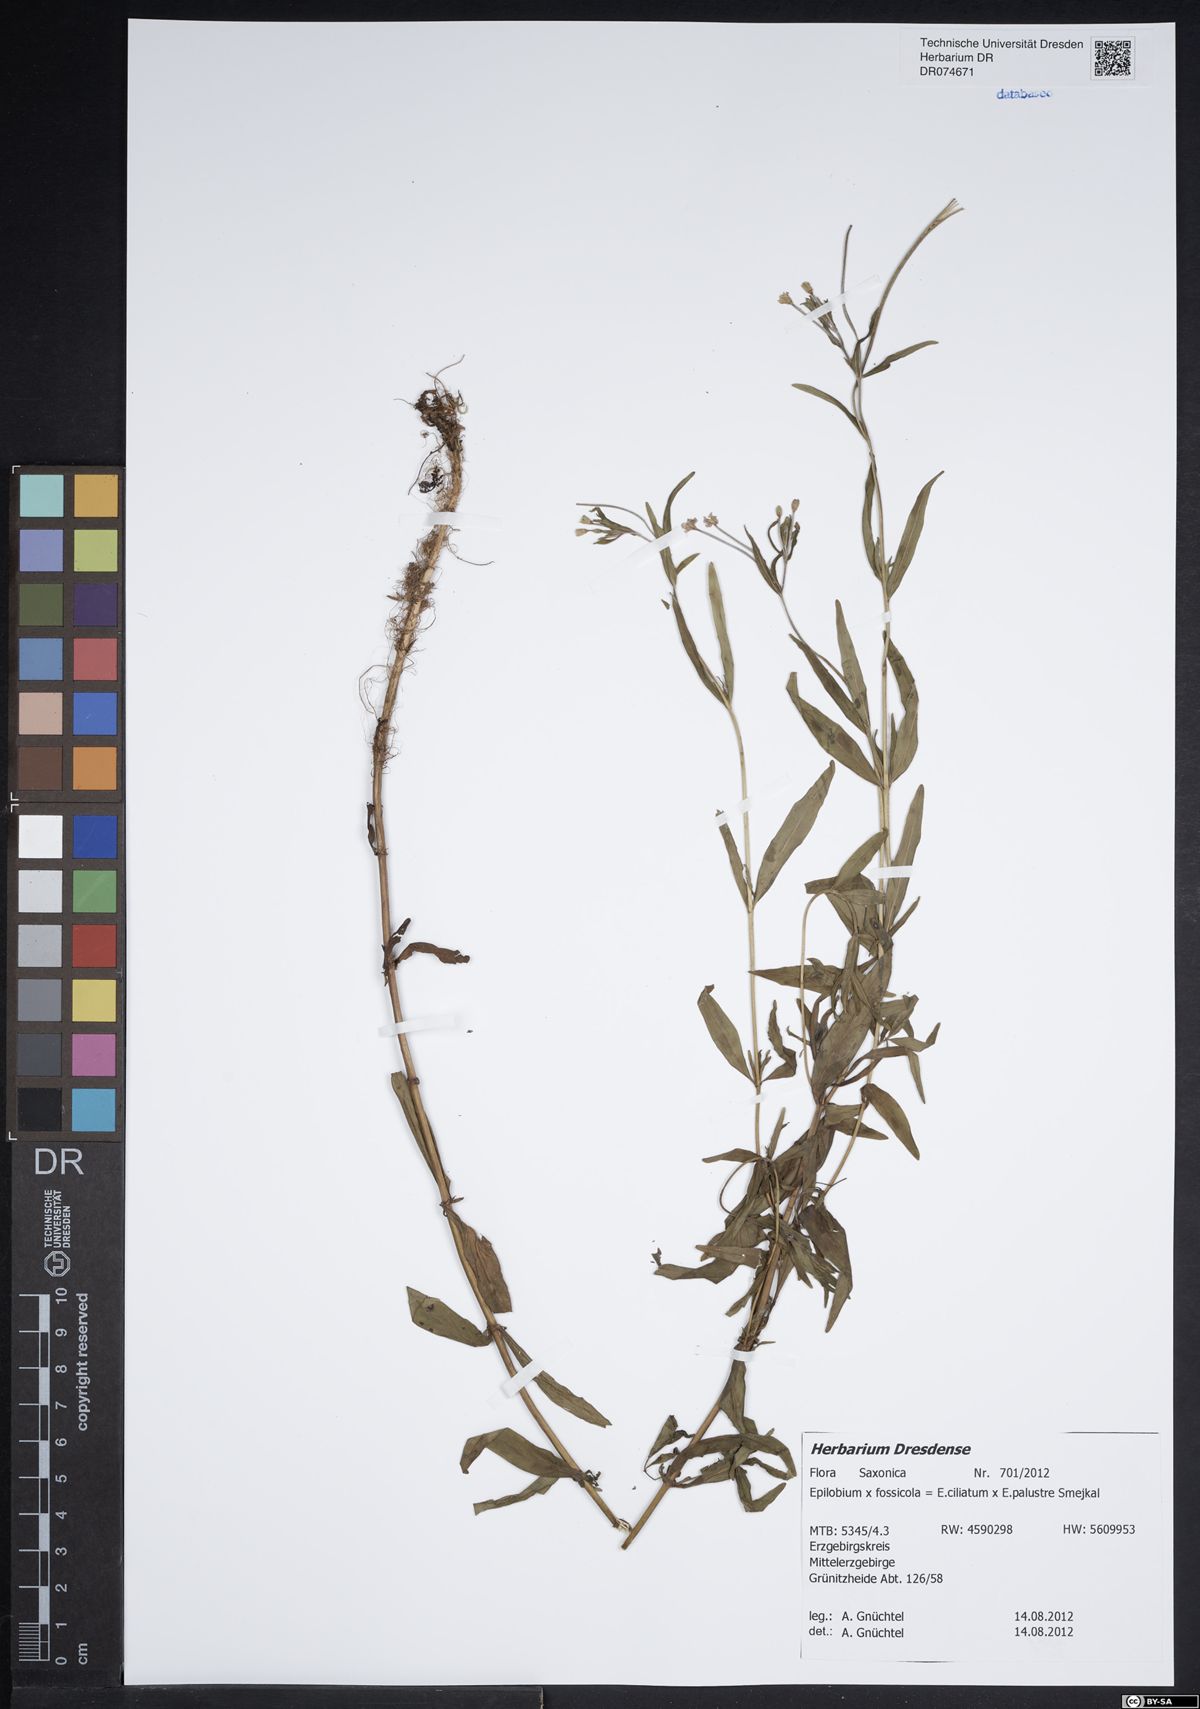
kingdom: Plantae
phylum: Tracheophyta
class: Magnoliopsida
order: Myrtales
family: Onagraceae
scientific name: Onagraceae
